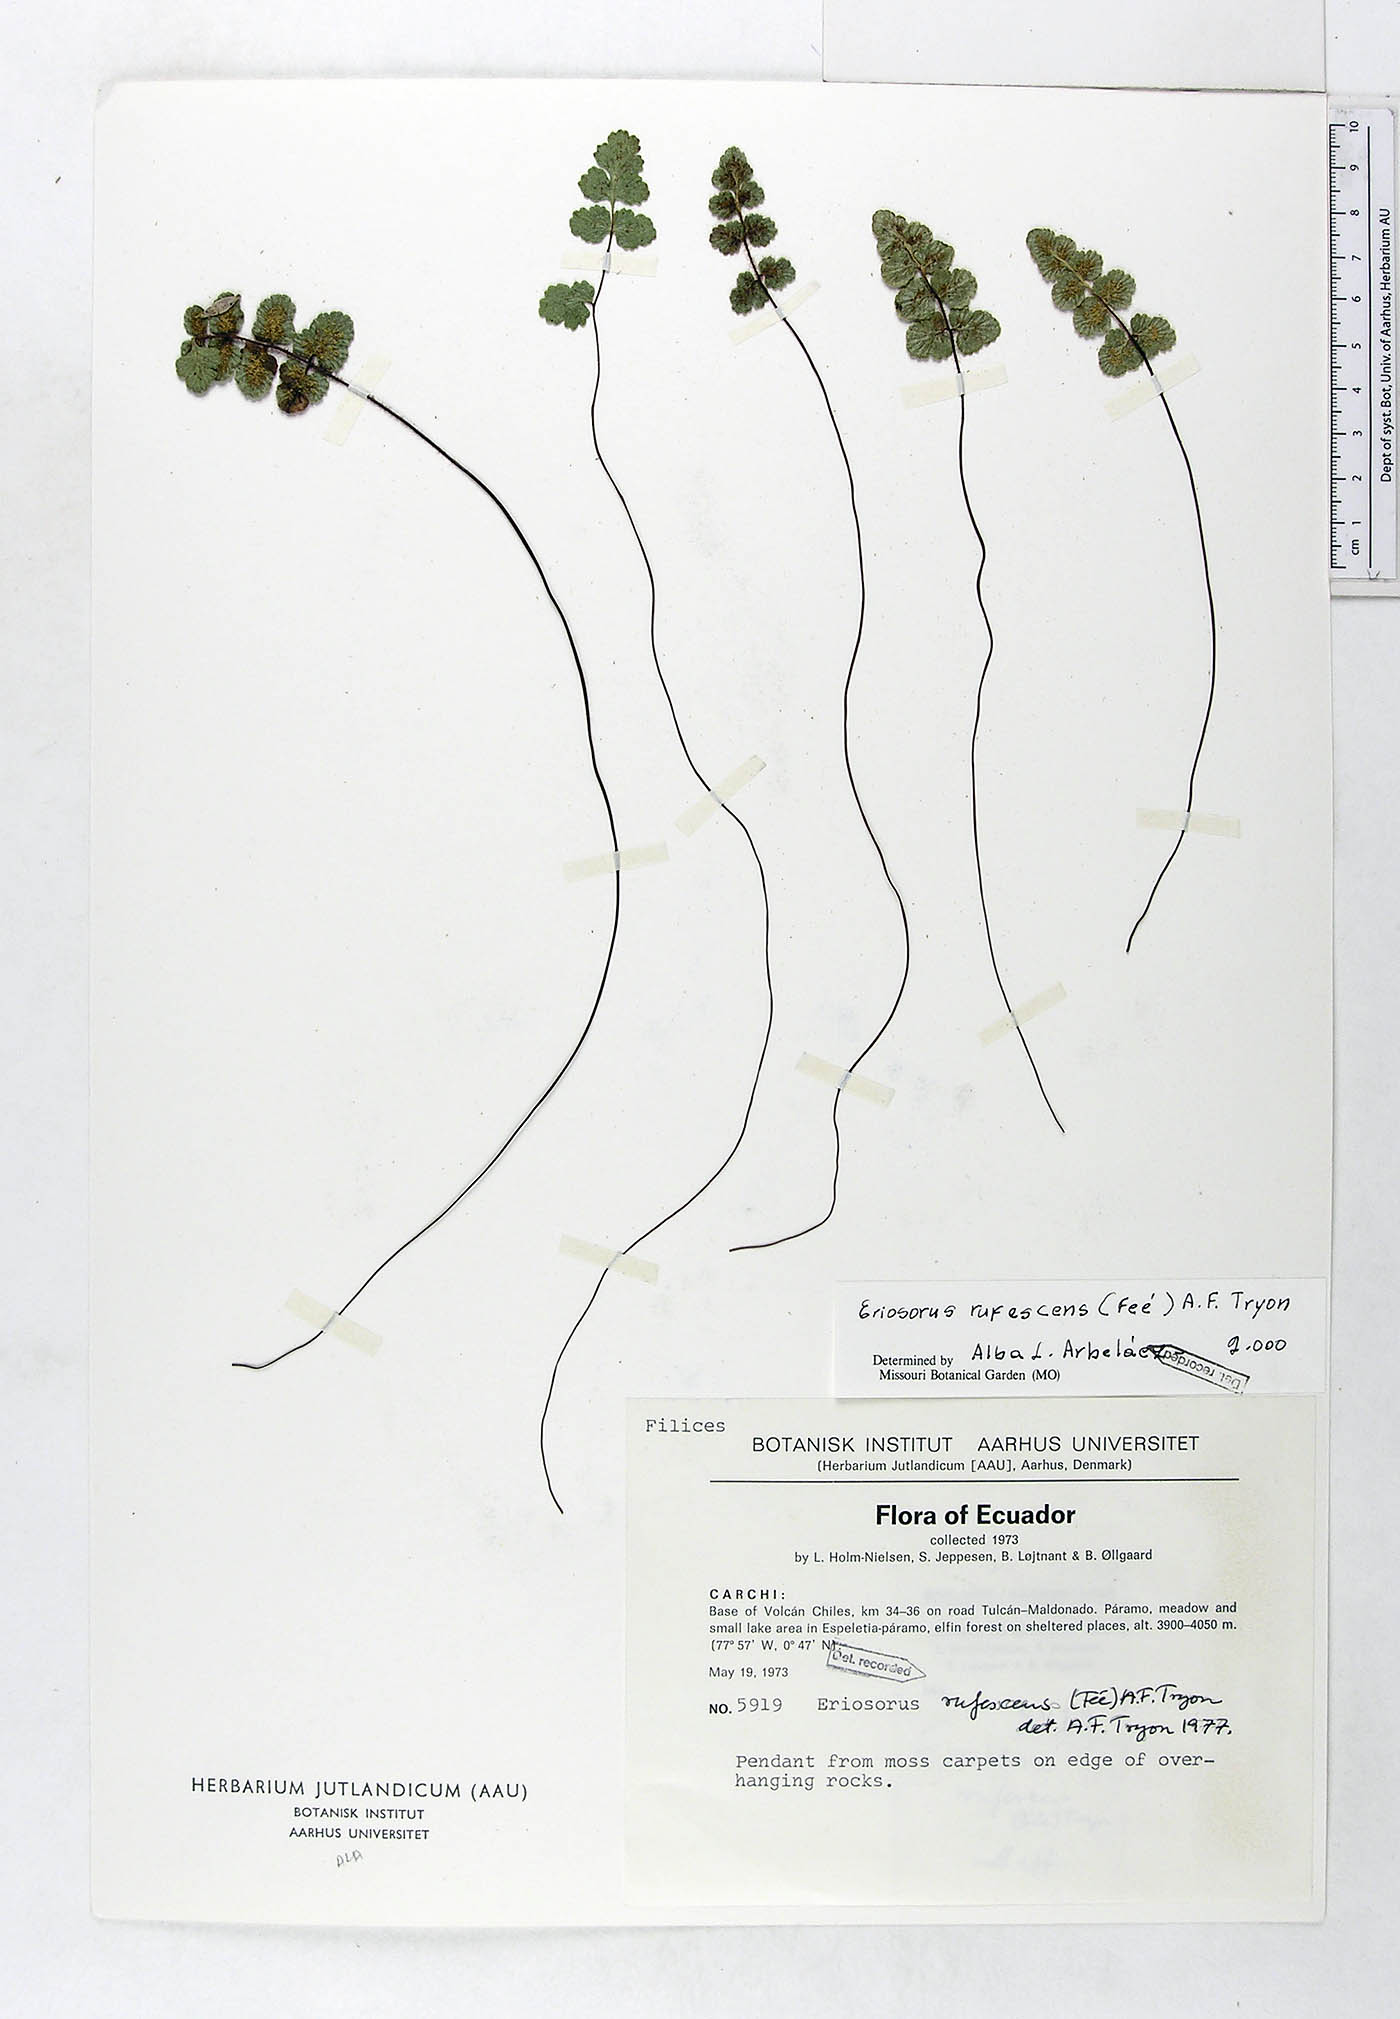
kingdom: Plantae
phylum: Tracheophyta
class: Polypodiopsida
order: Polypodiales
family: Pteridaceae
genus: Jamesonia
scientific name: Jamesonia rufescens
